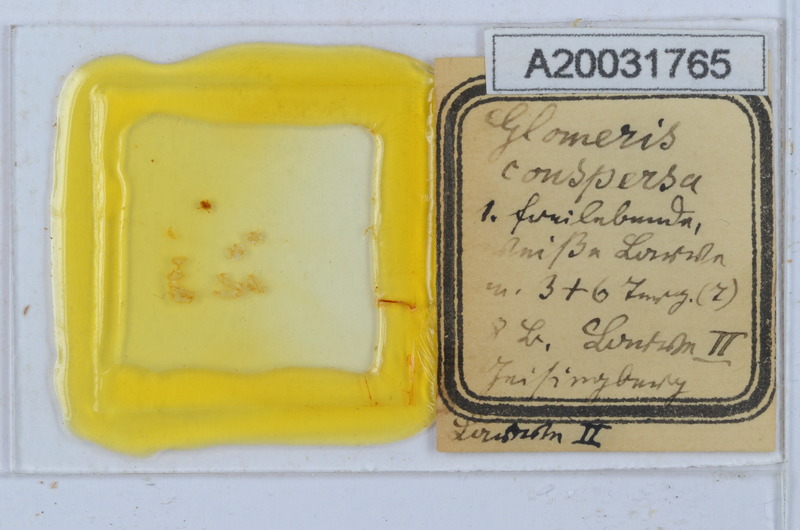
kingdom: Animalia
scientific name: Animalia
